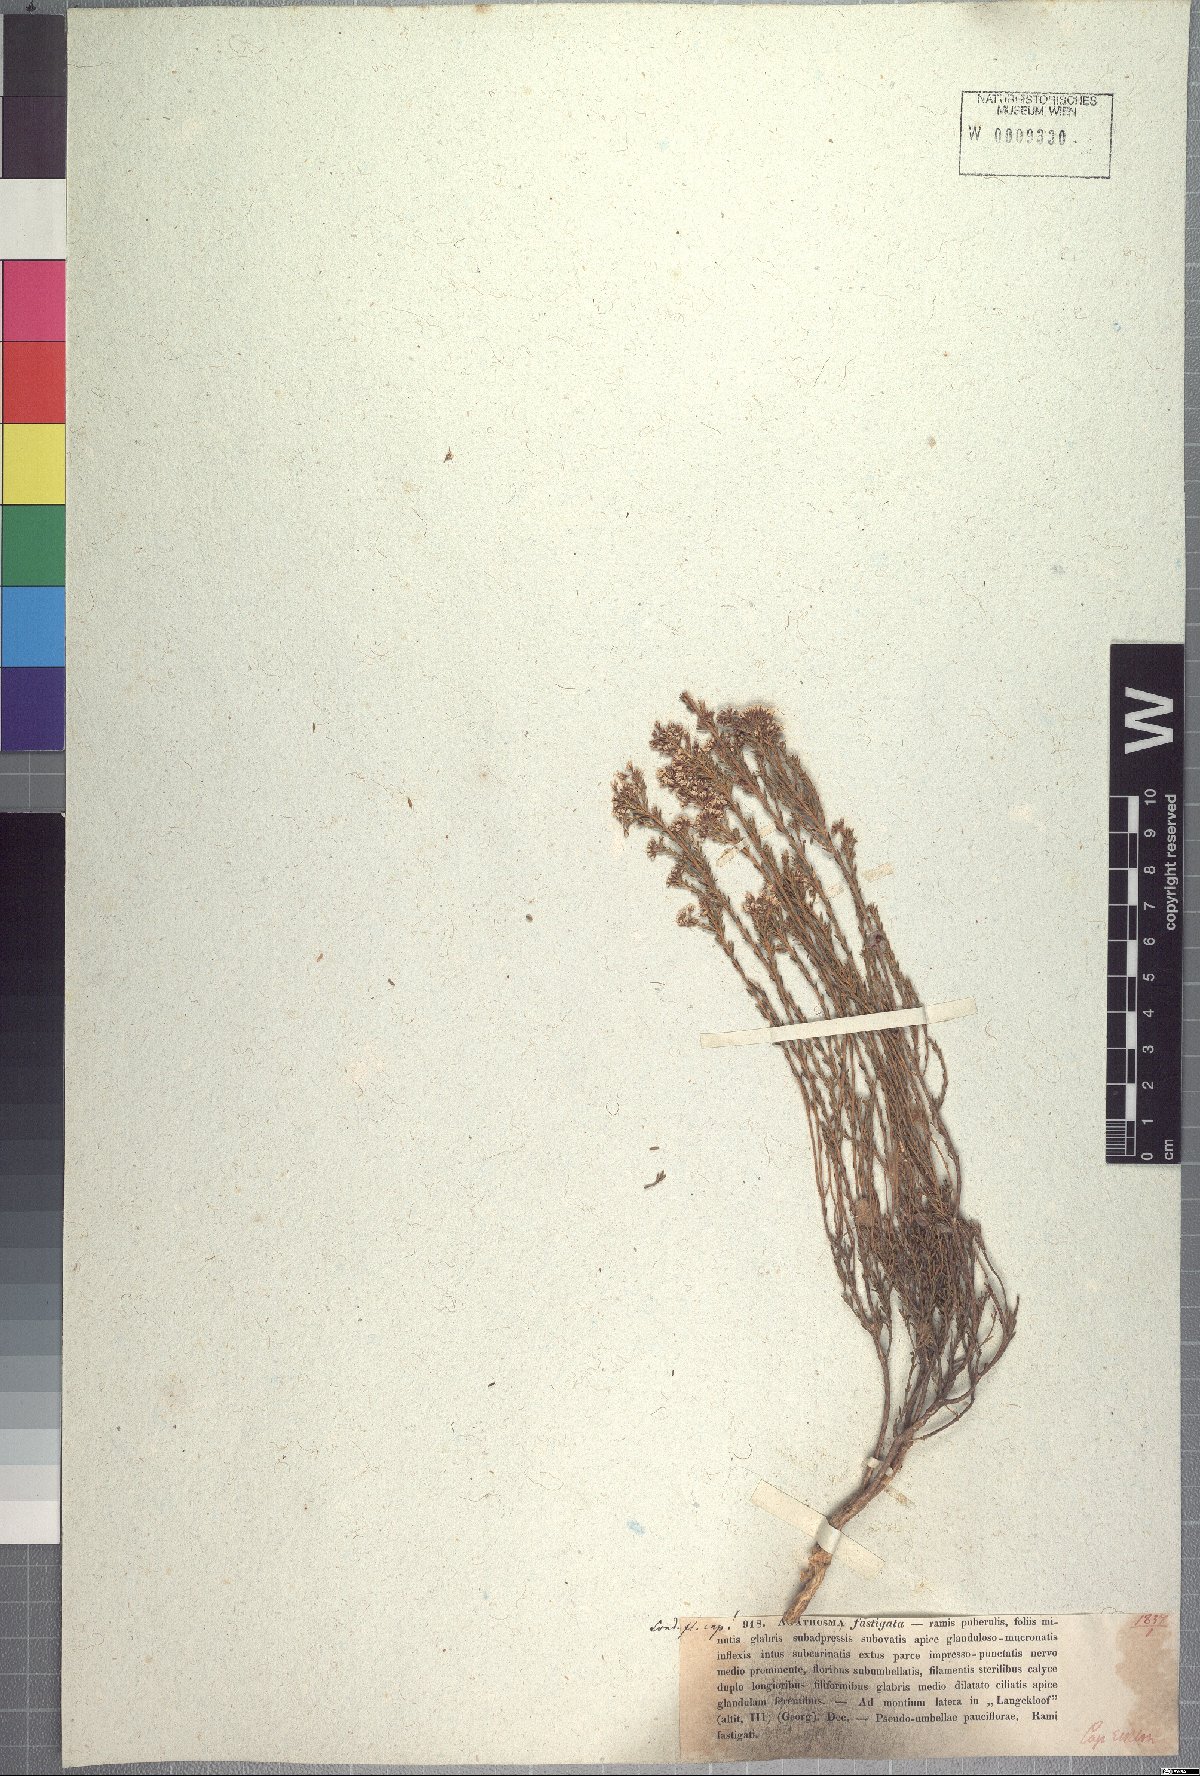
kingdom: Plantae
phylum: Tracheophyta
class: Magnoliopsida
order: Sapindales
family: Rutaceae
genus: Agathosma
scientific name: Agathosma capensis
